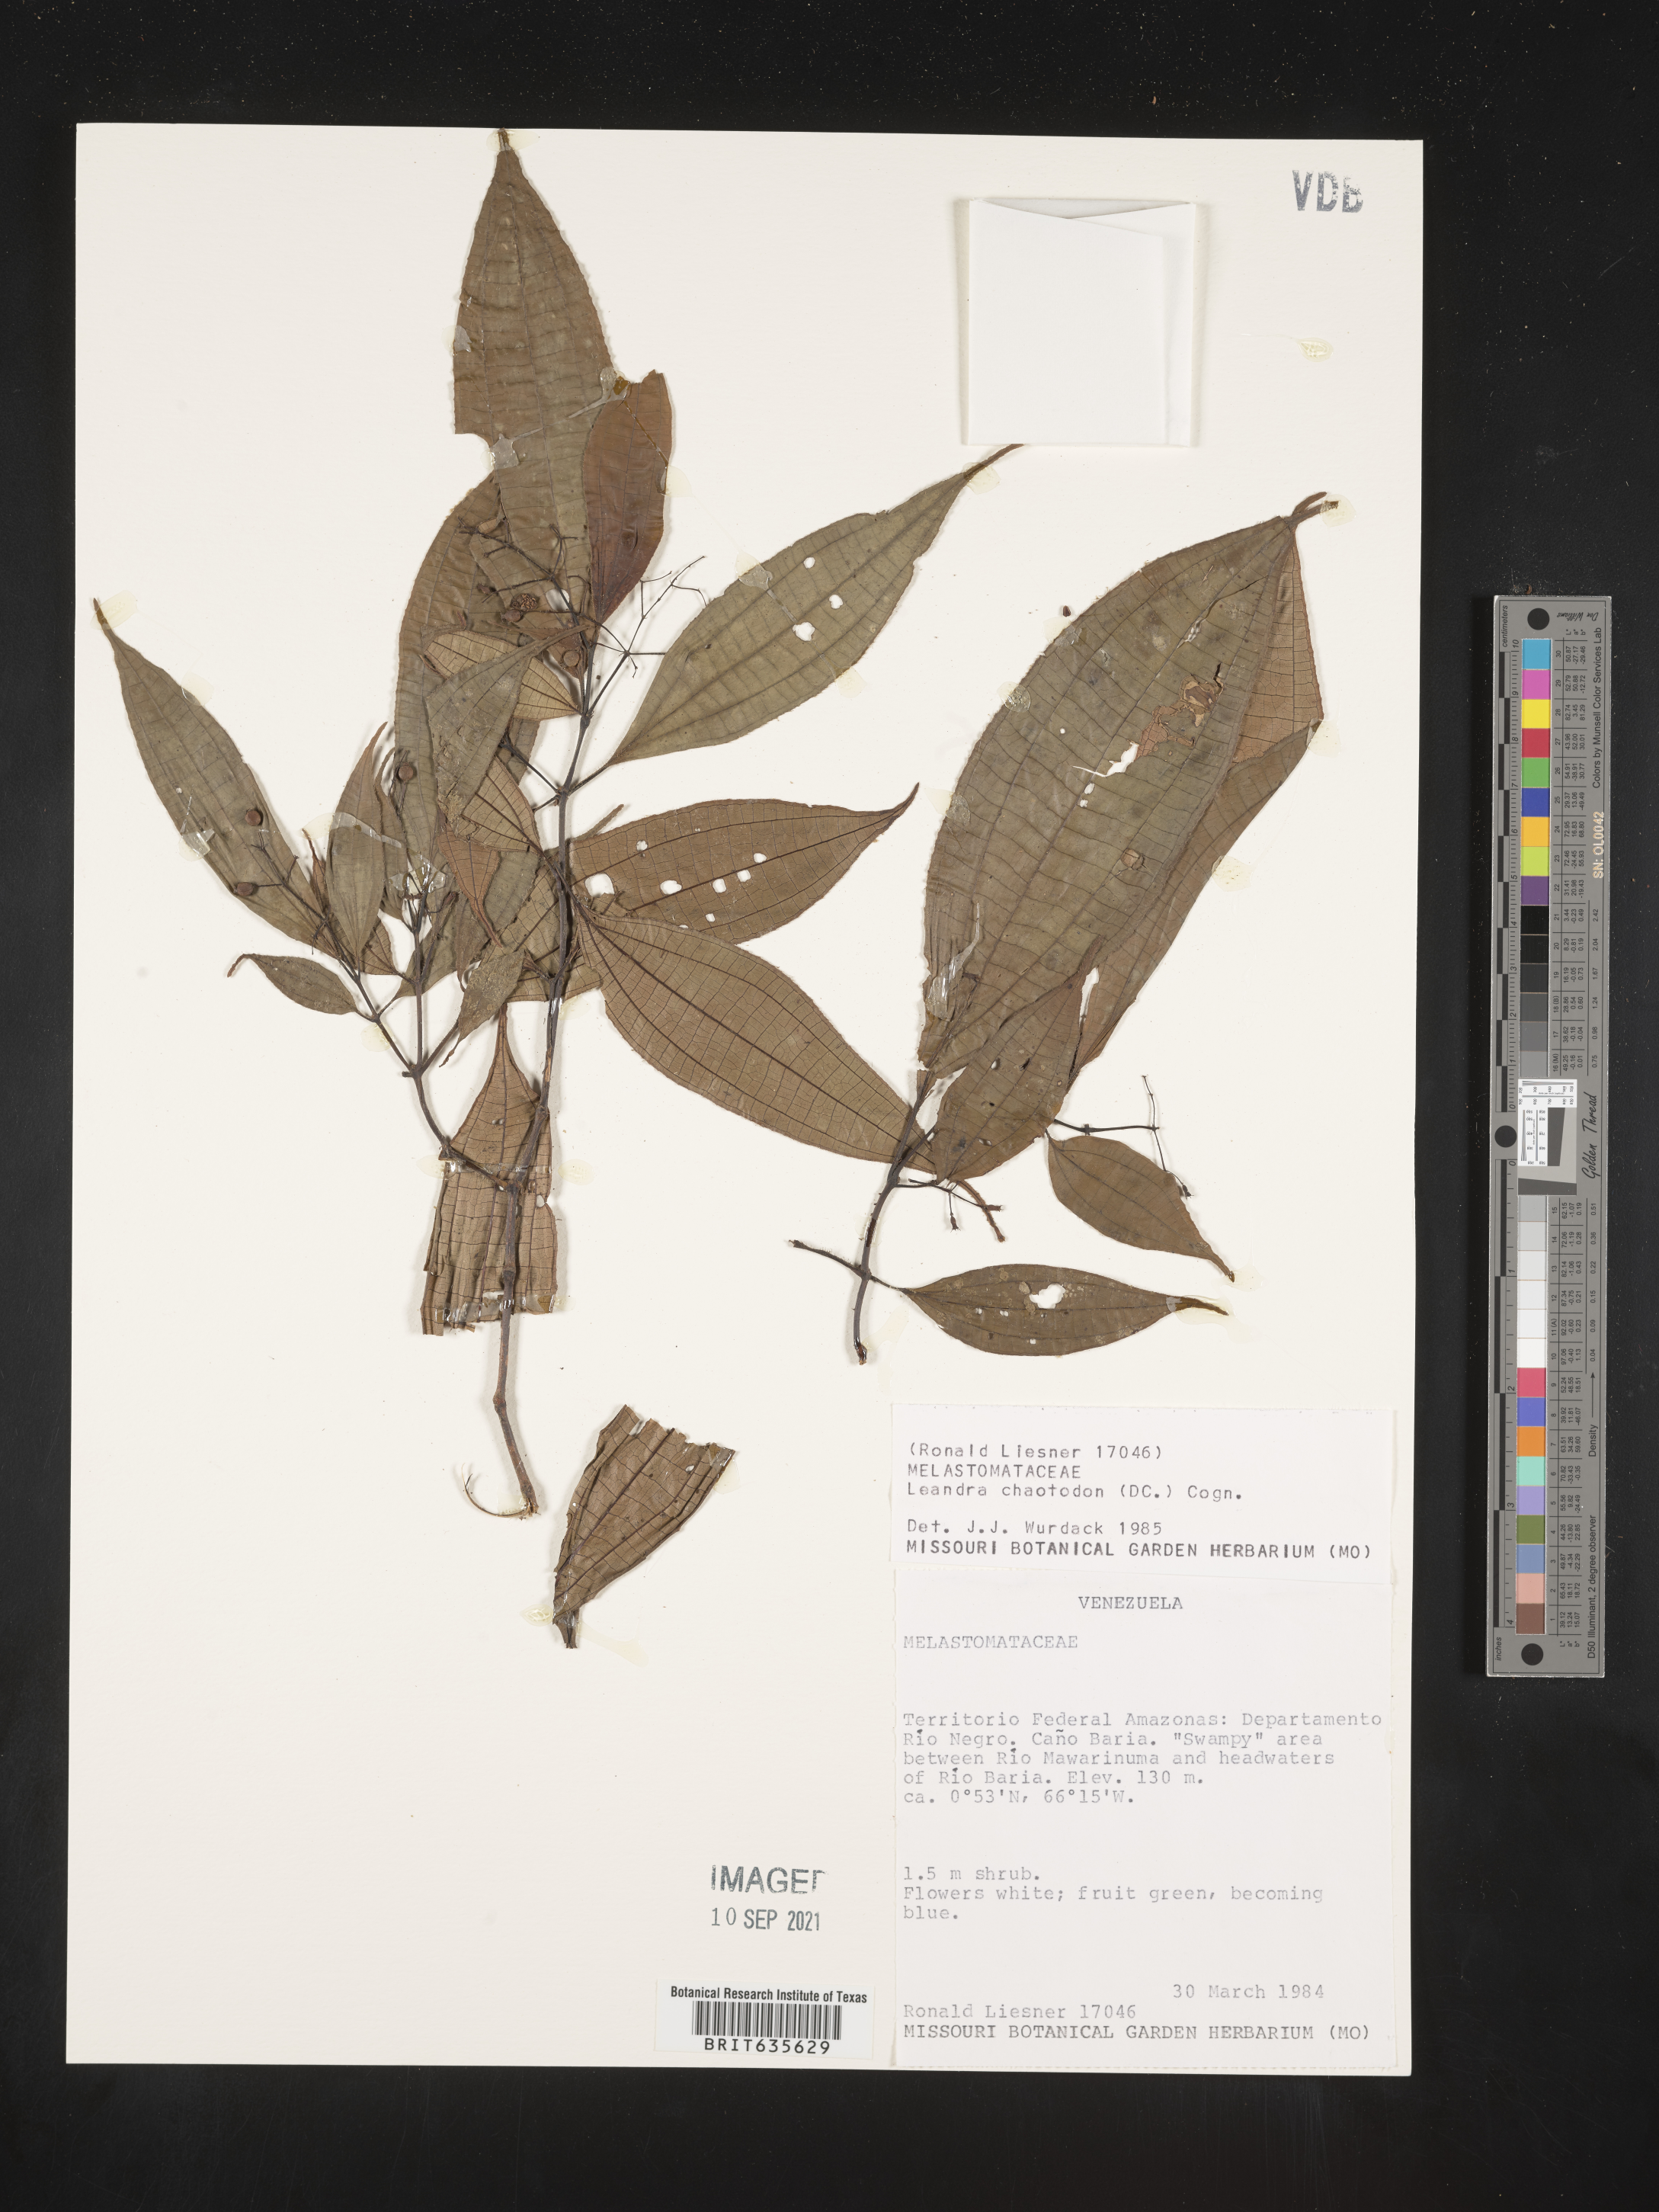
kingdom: Plantae
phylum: Tracheophyta
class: Magnoliopsida
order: Myrtales
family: Melastomataceae
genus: Miconia
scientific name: Miconia
